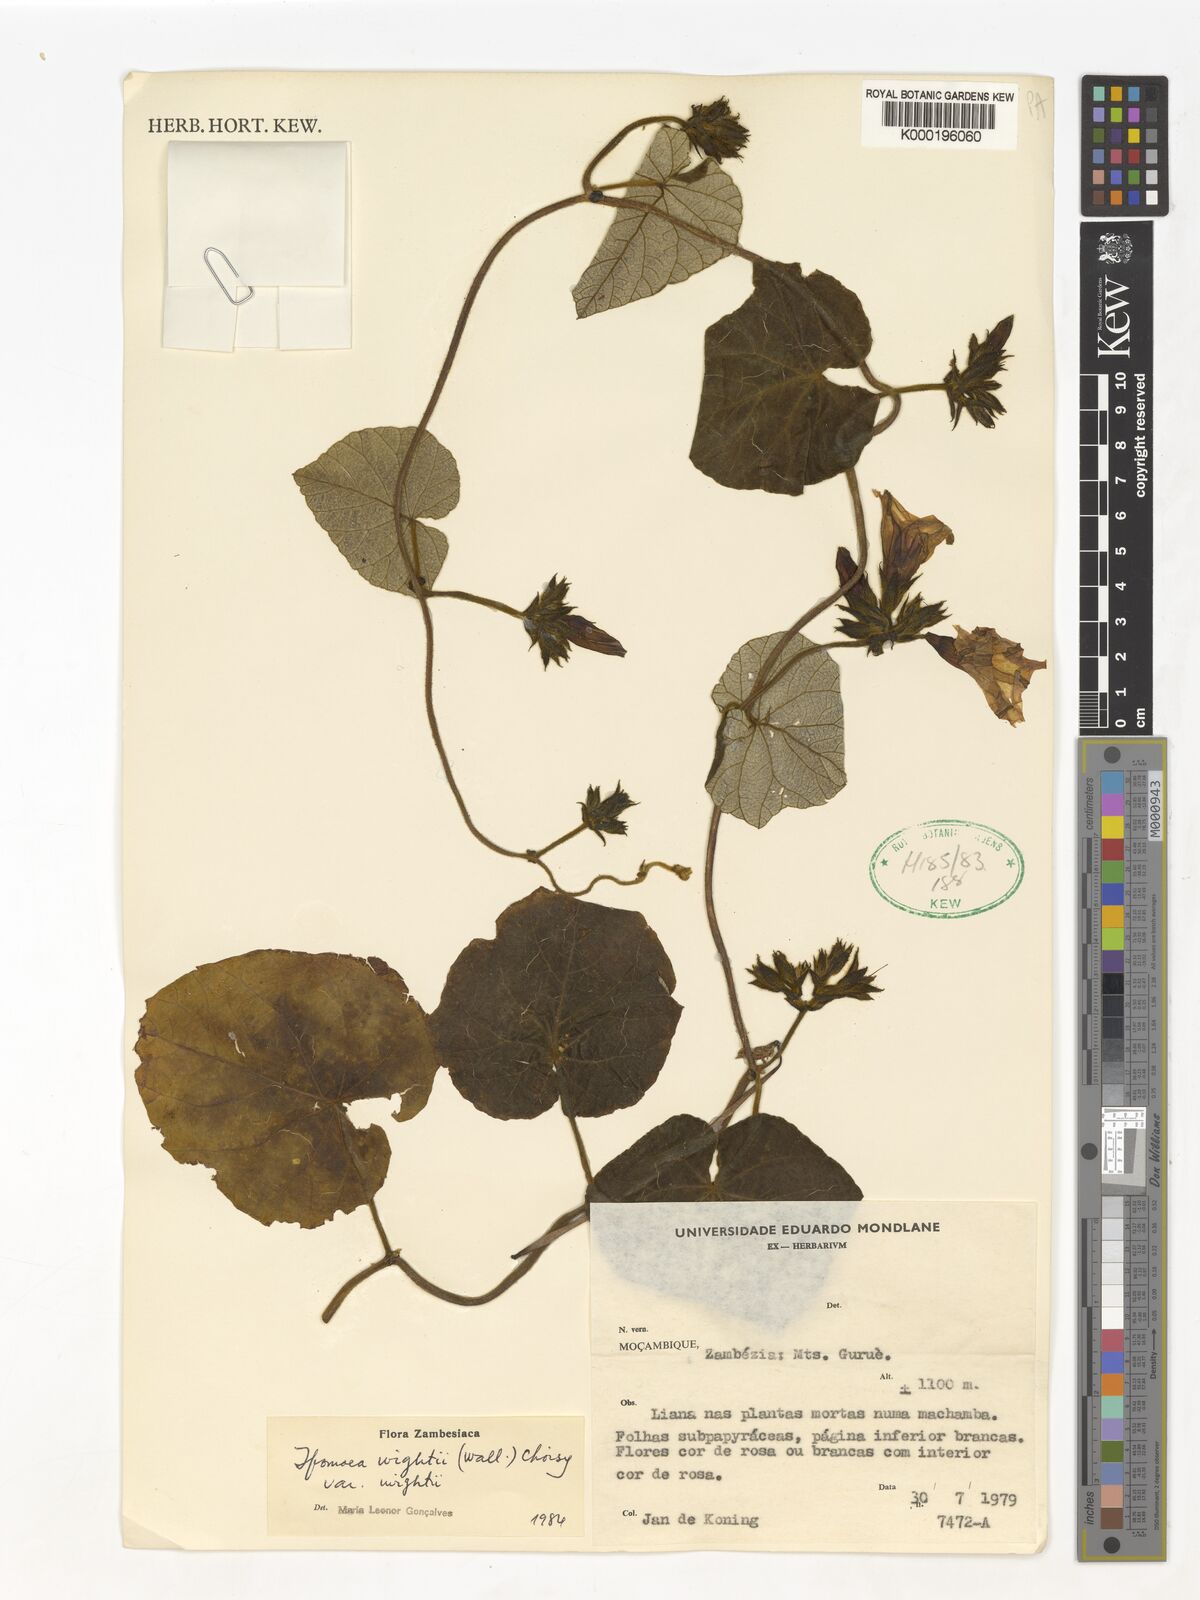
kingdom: Plantae
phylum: Tracheophyta
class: Magnoliopsida
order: Solanales
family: Convolvulaceae
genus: Ipomoea
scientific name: Ipomoea wightii
